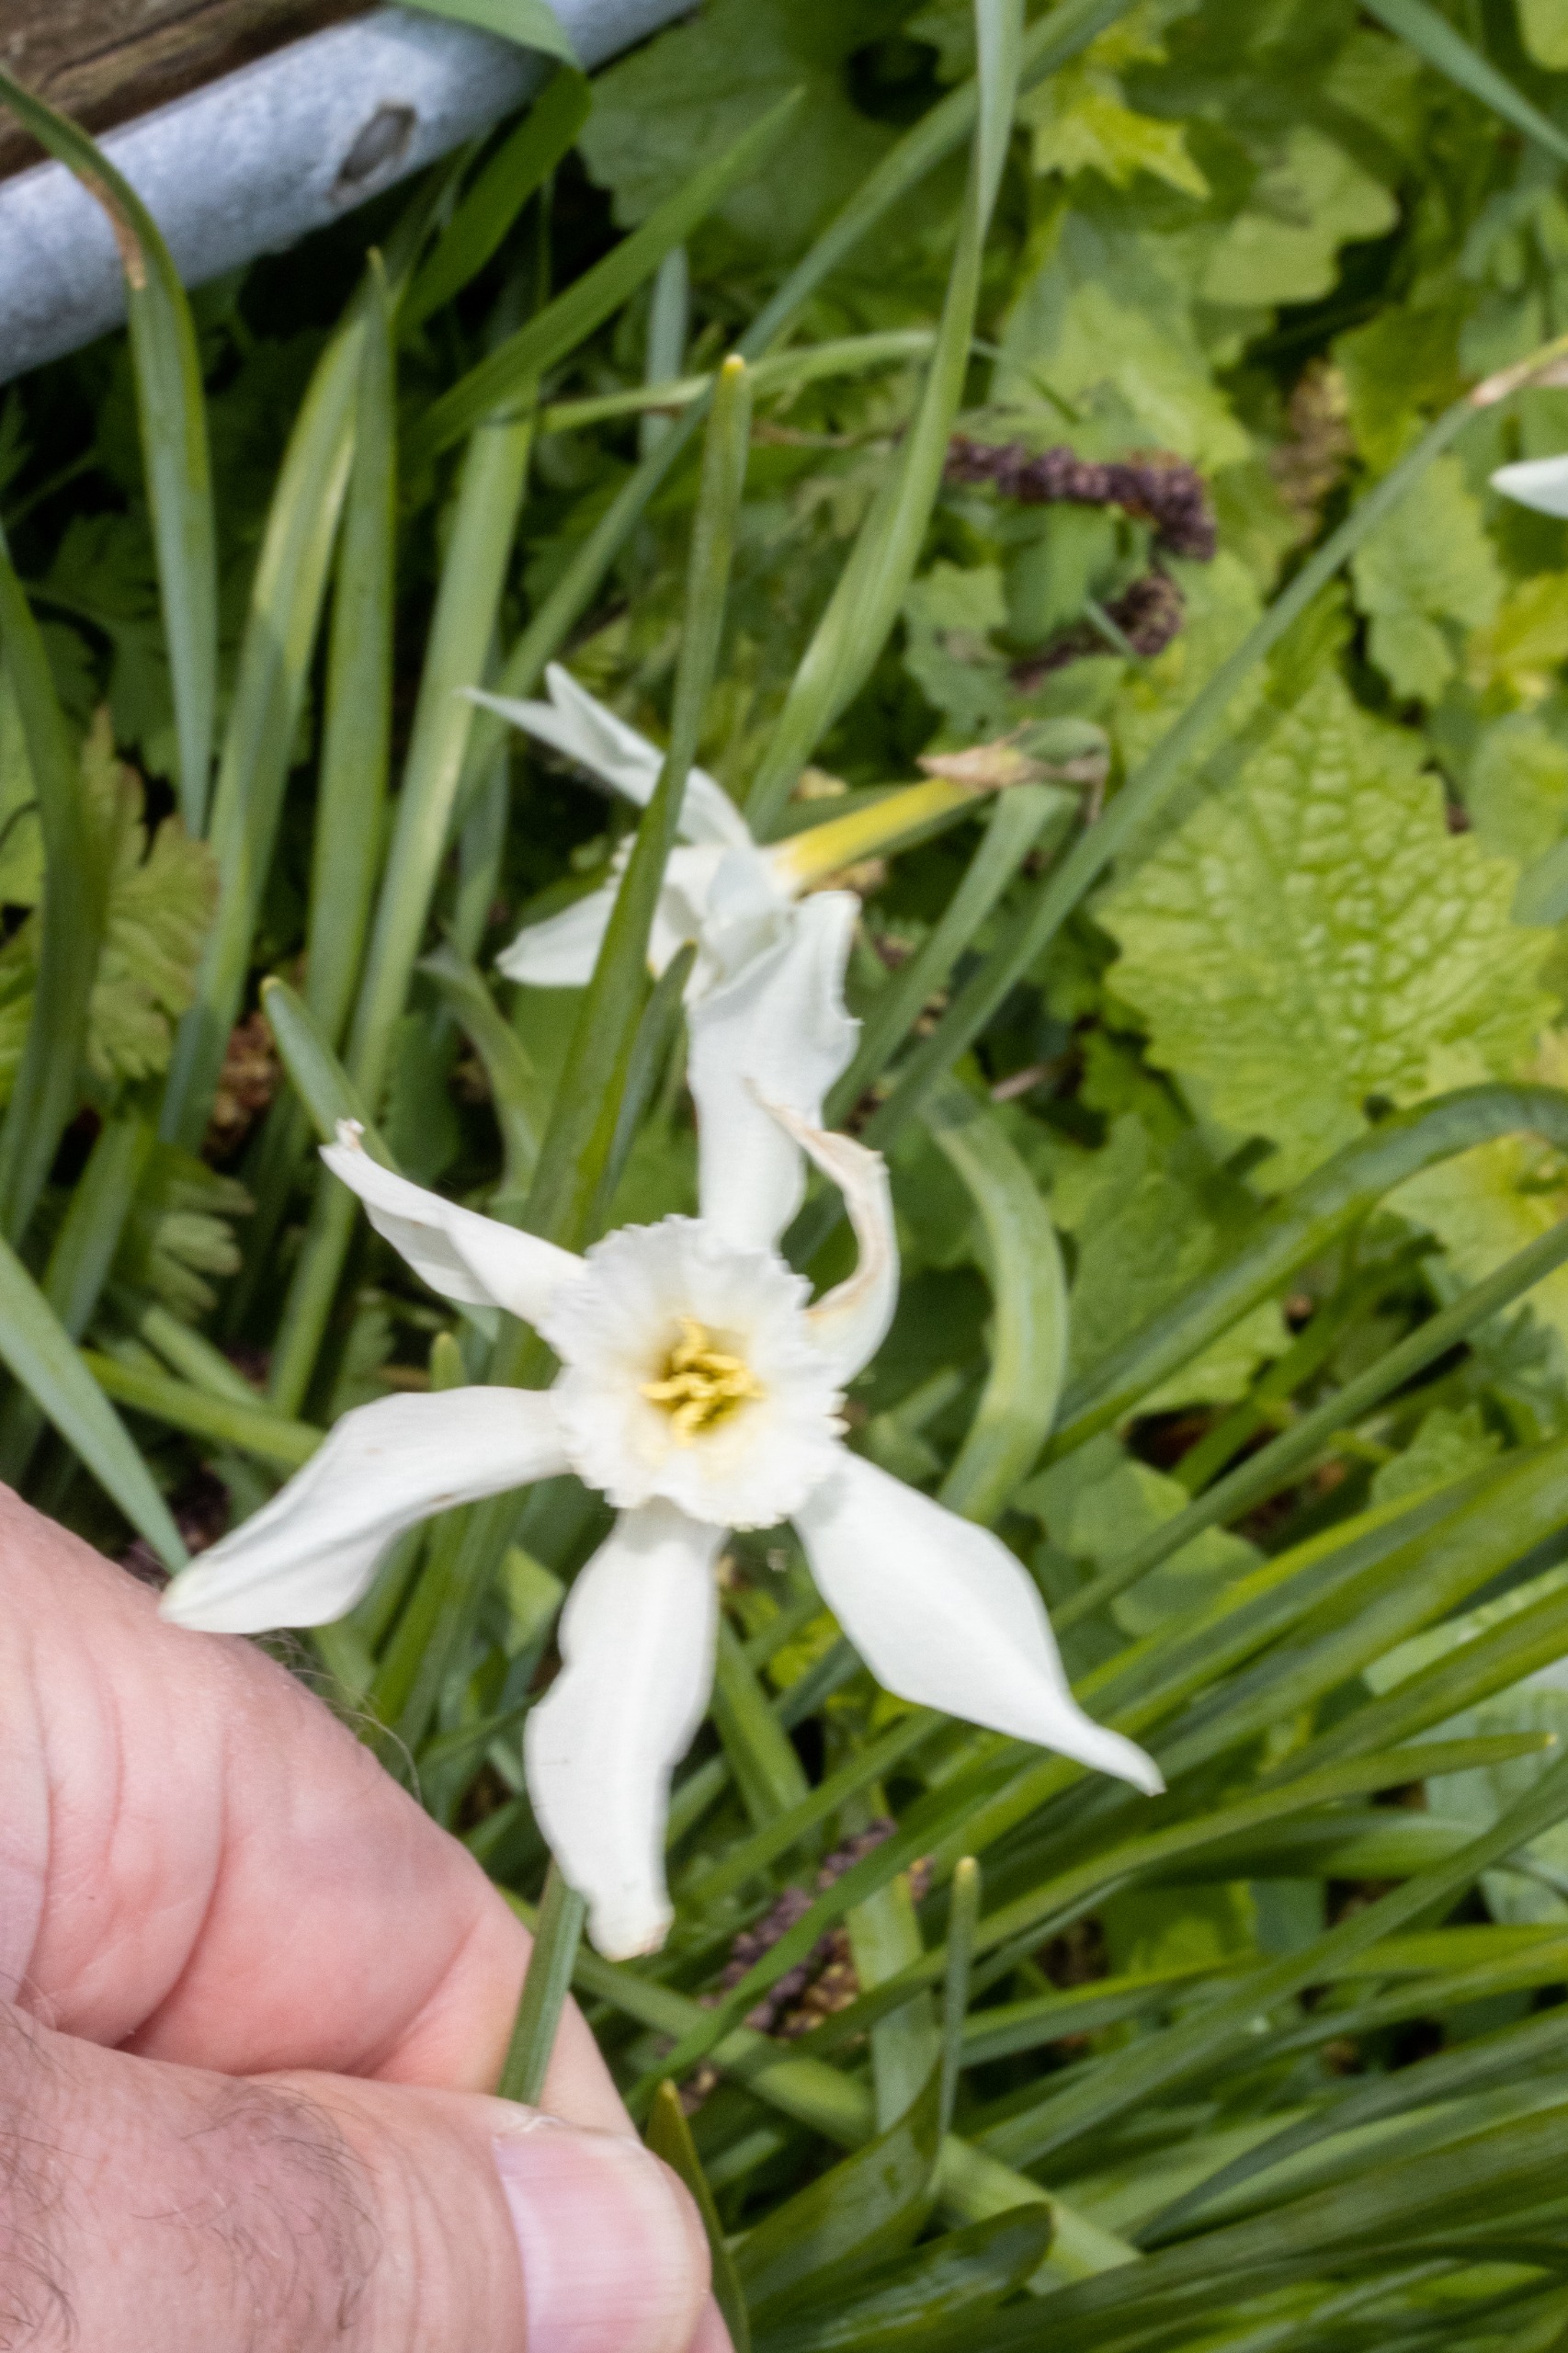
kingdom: Plantae
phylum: Tracheophyta
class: Liliopsida
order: Asparagales
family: Amaryllidaceae
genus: Narcissus
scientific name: Narcissus triandrus
